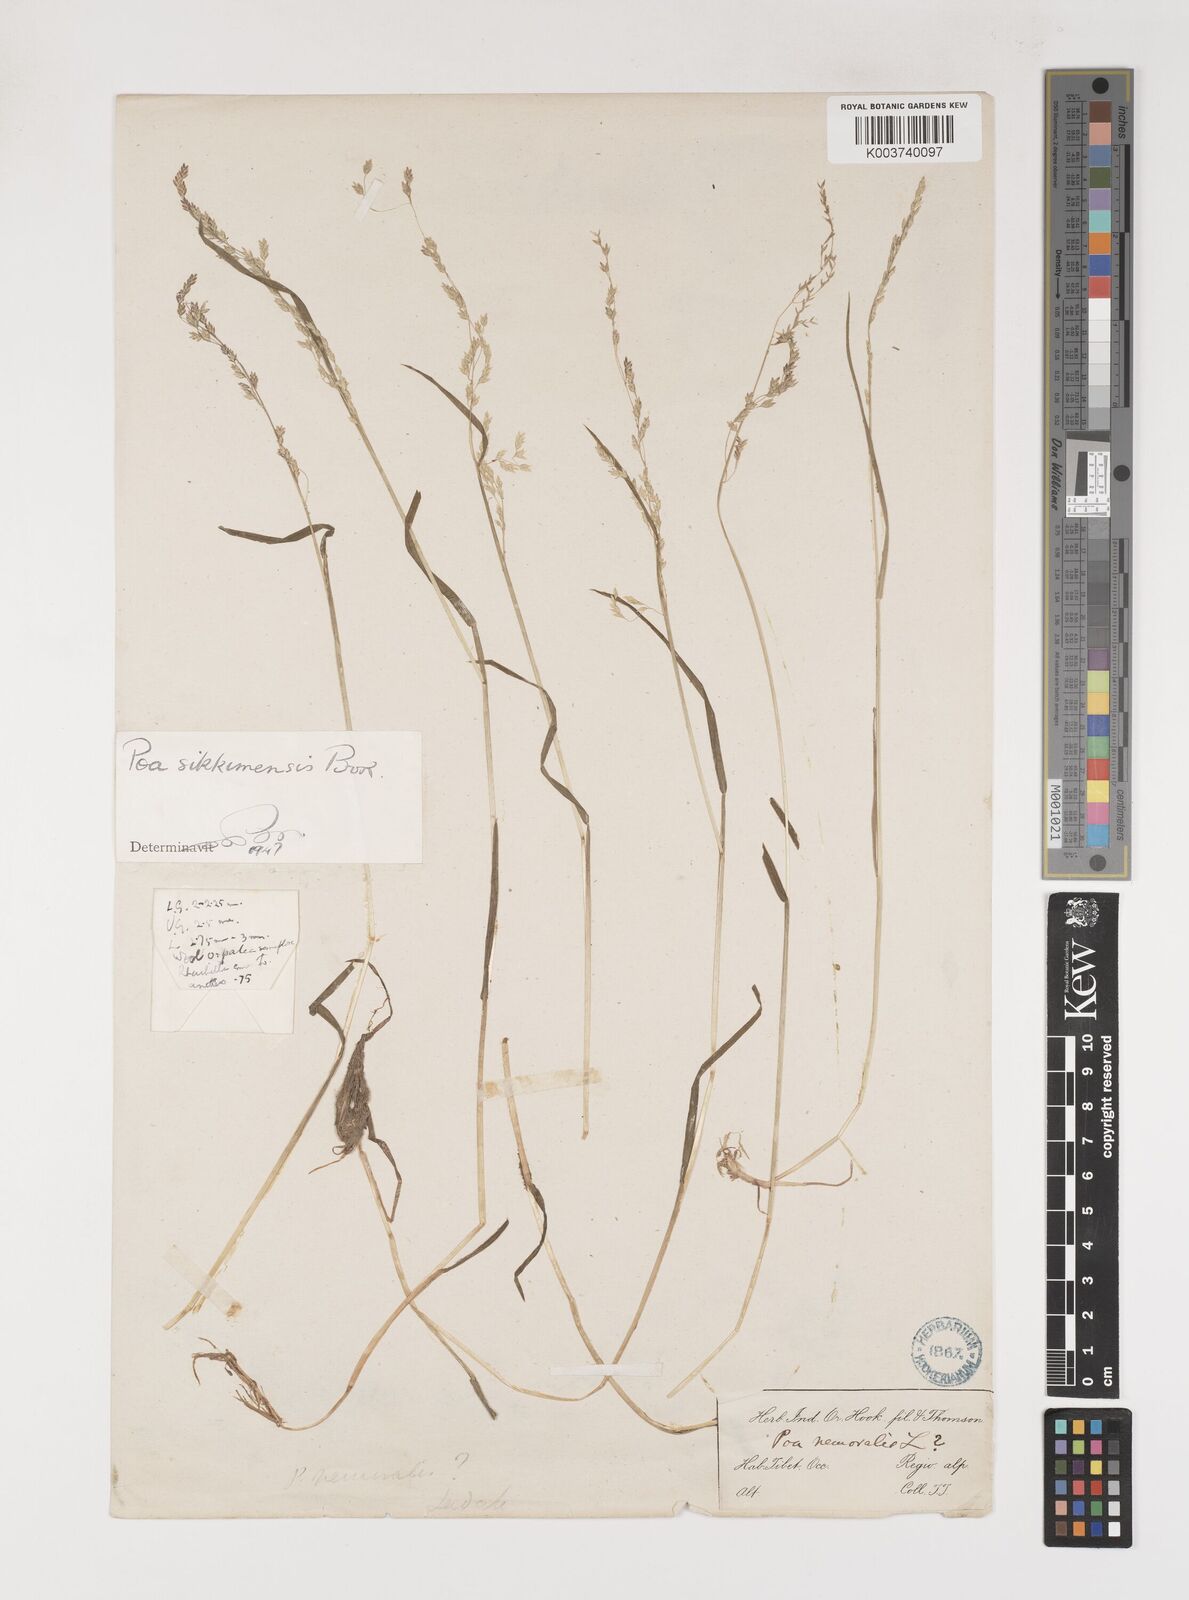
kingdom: Plantae
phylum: Tracheophyta
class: Liliopsida
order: Poales
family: Poaceae
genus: Poa
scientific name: Poa sikkimensis
